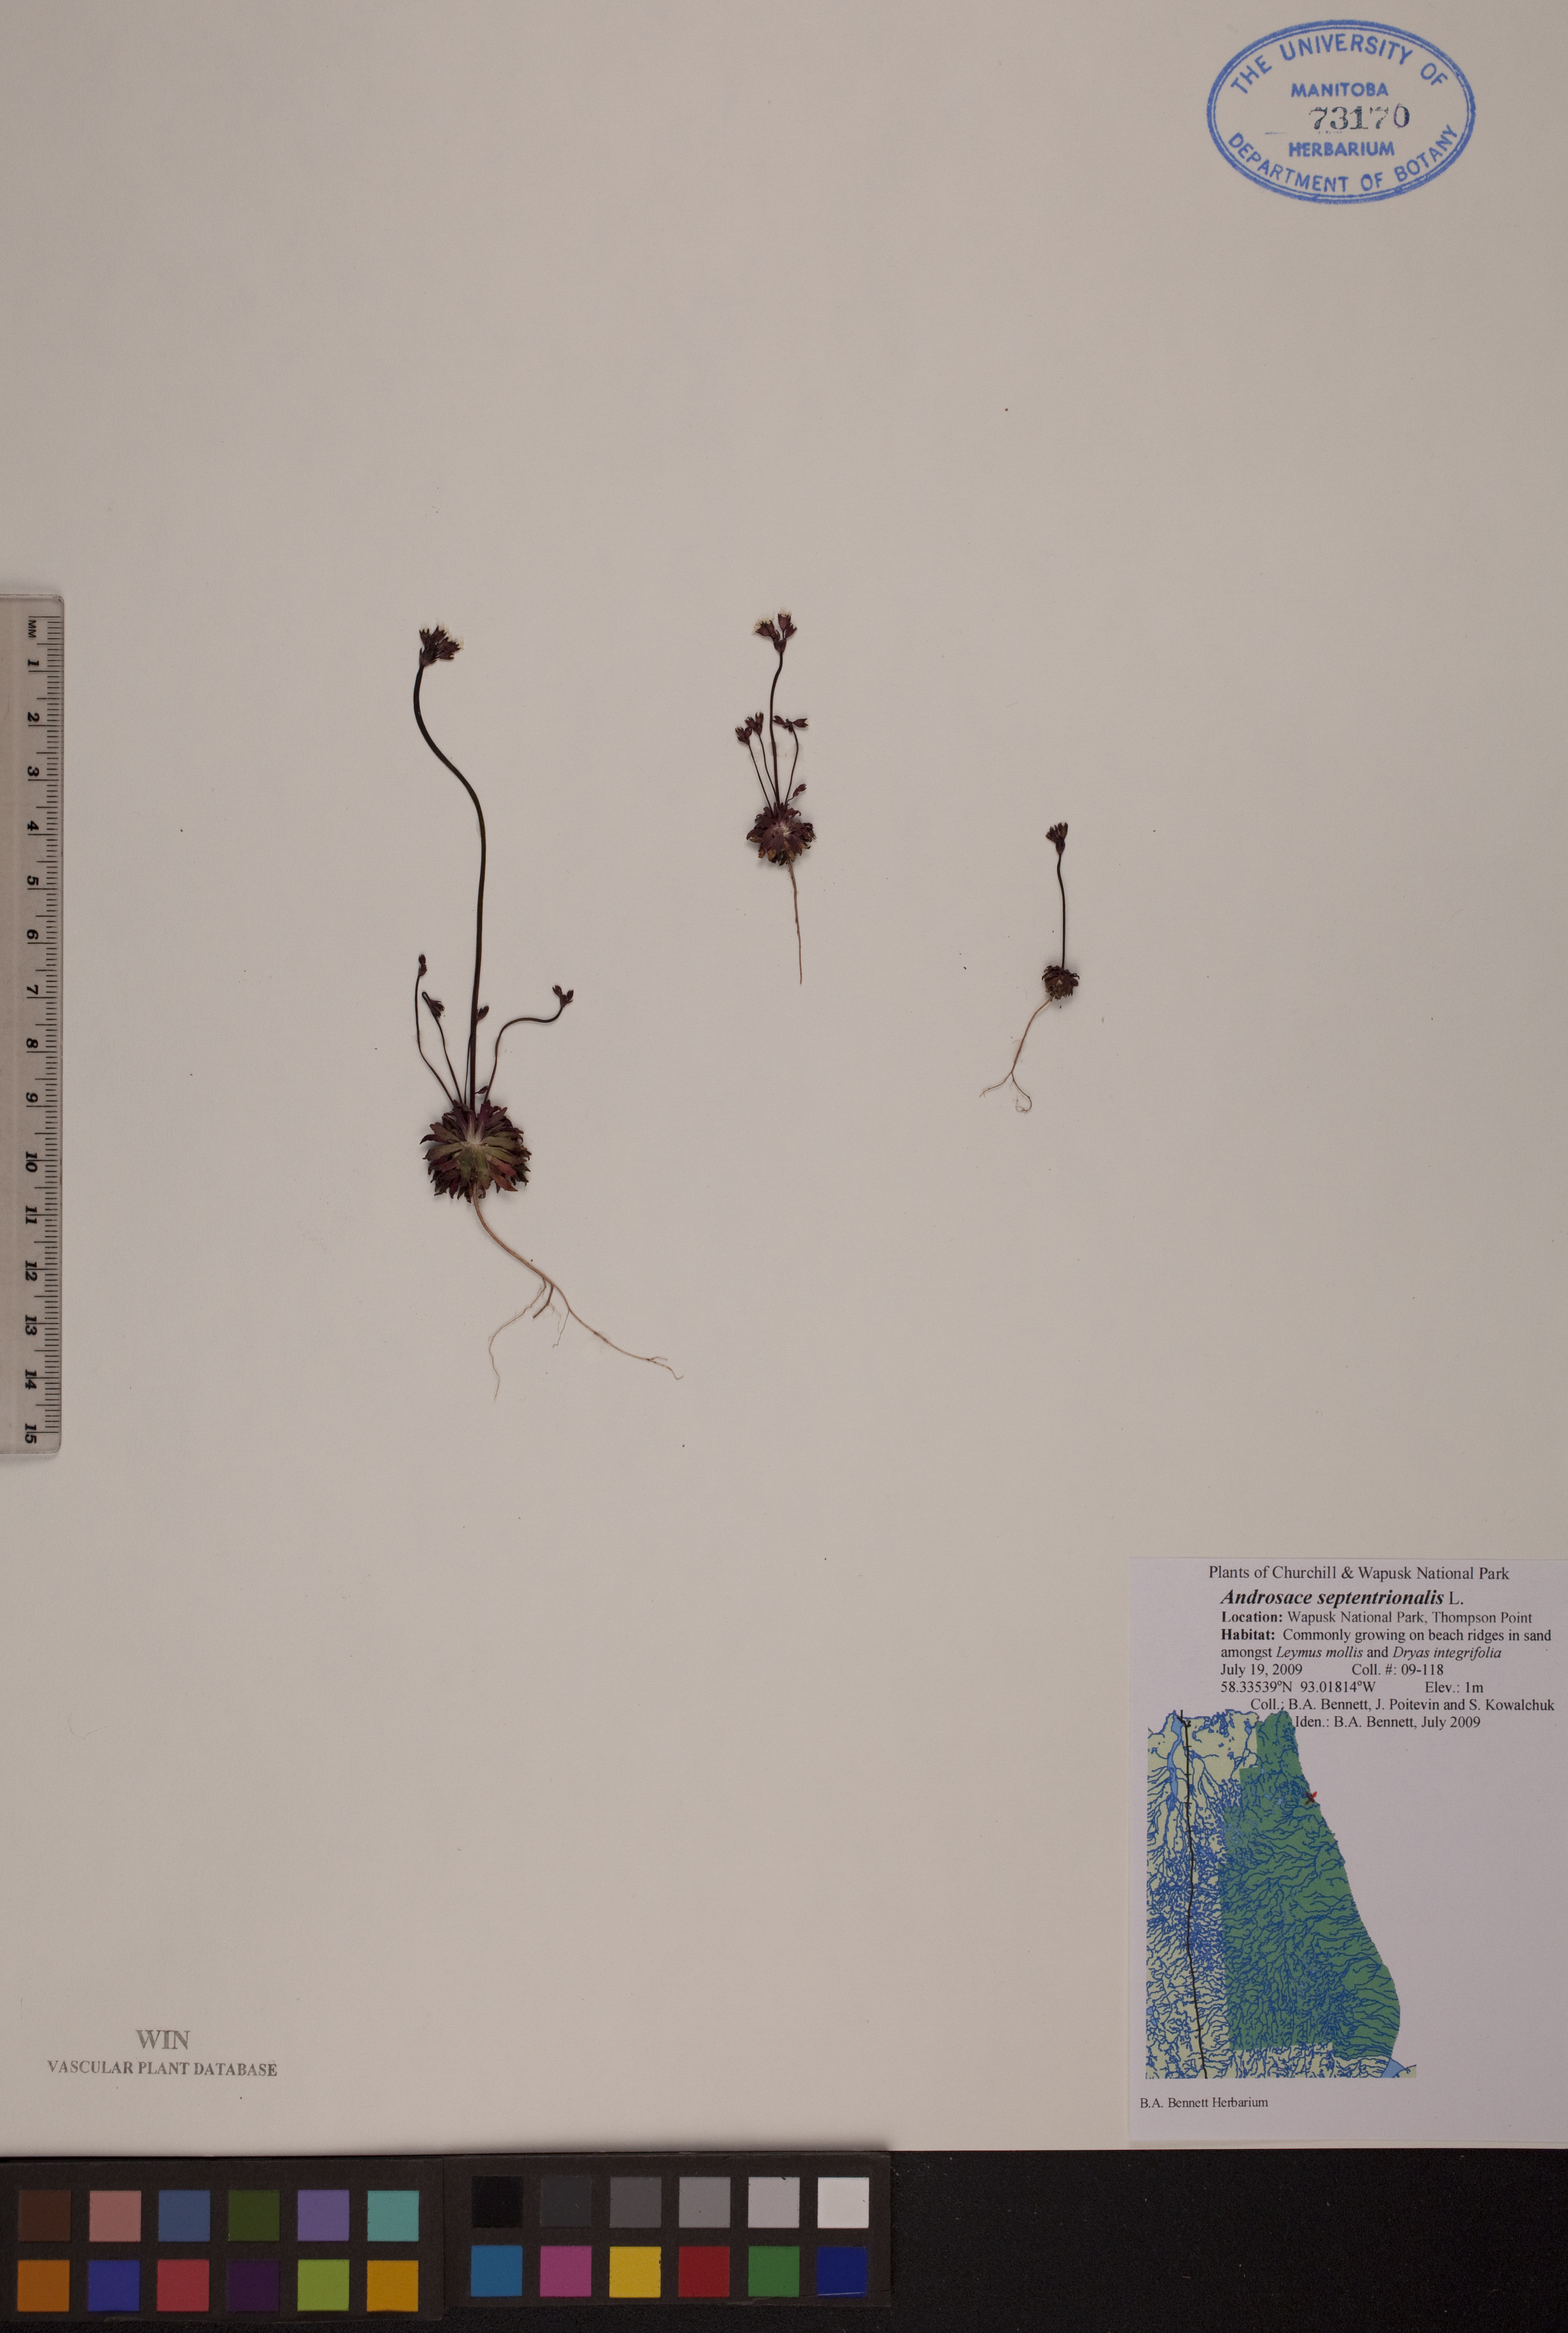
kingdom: Plantae
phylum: Tracheophyta
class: Magnoliopsida
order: Ericales
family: Primulaceae
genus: Androsace
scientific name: Androsace septentrionalis
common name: Hairy northern fairy-candelabra
